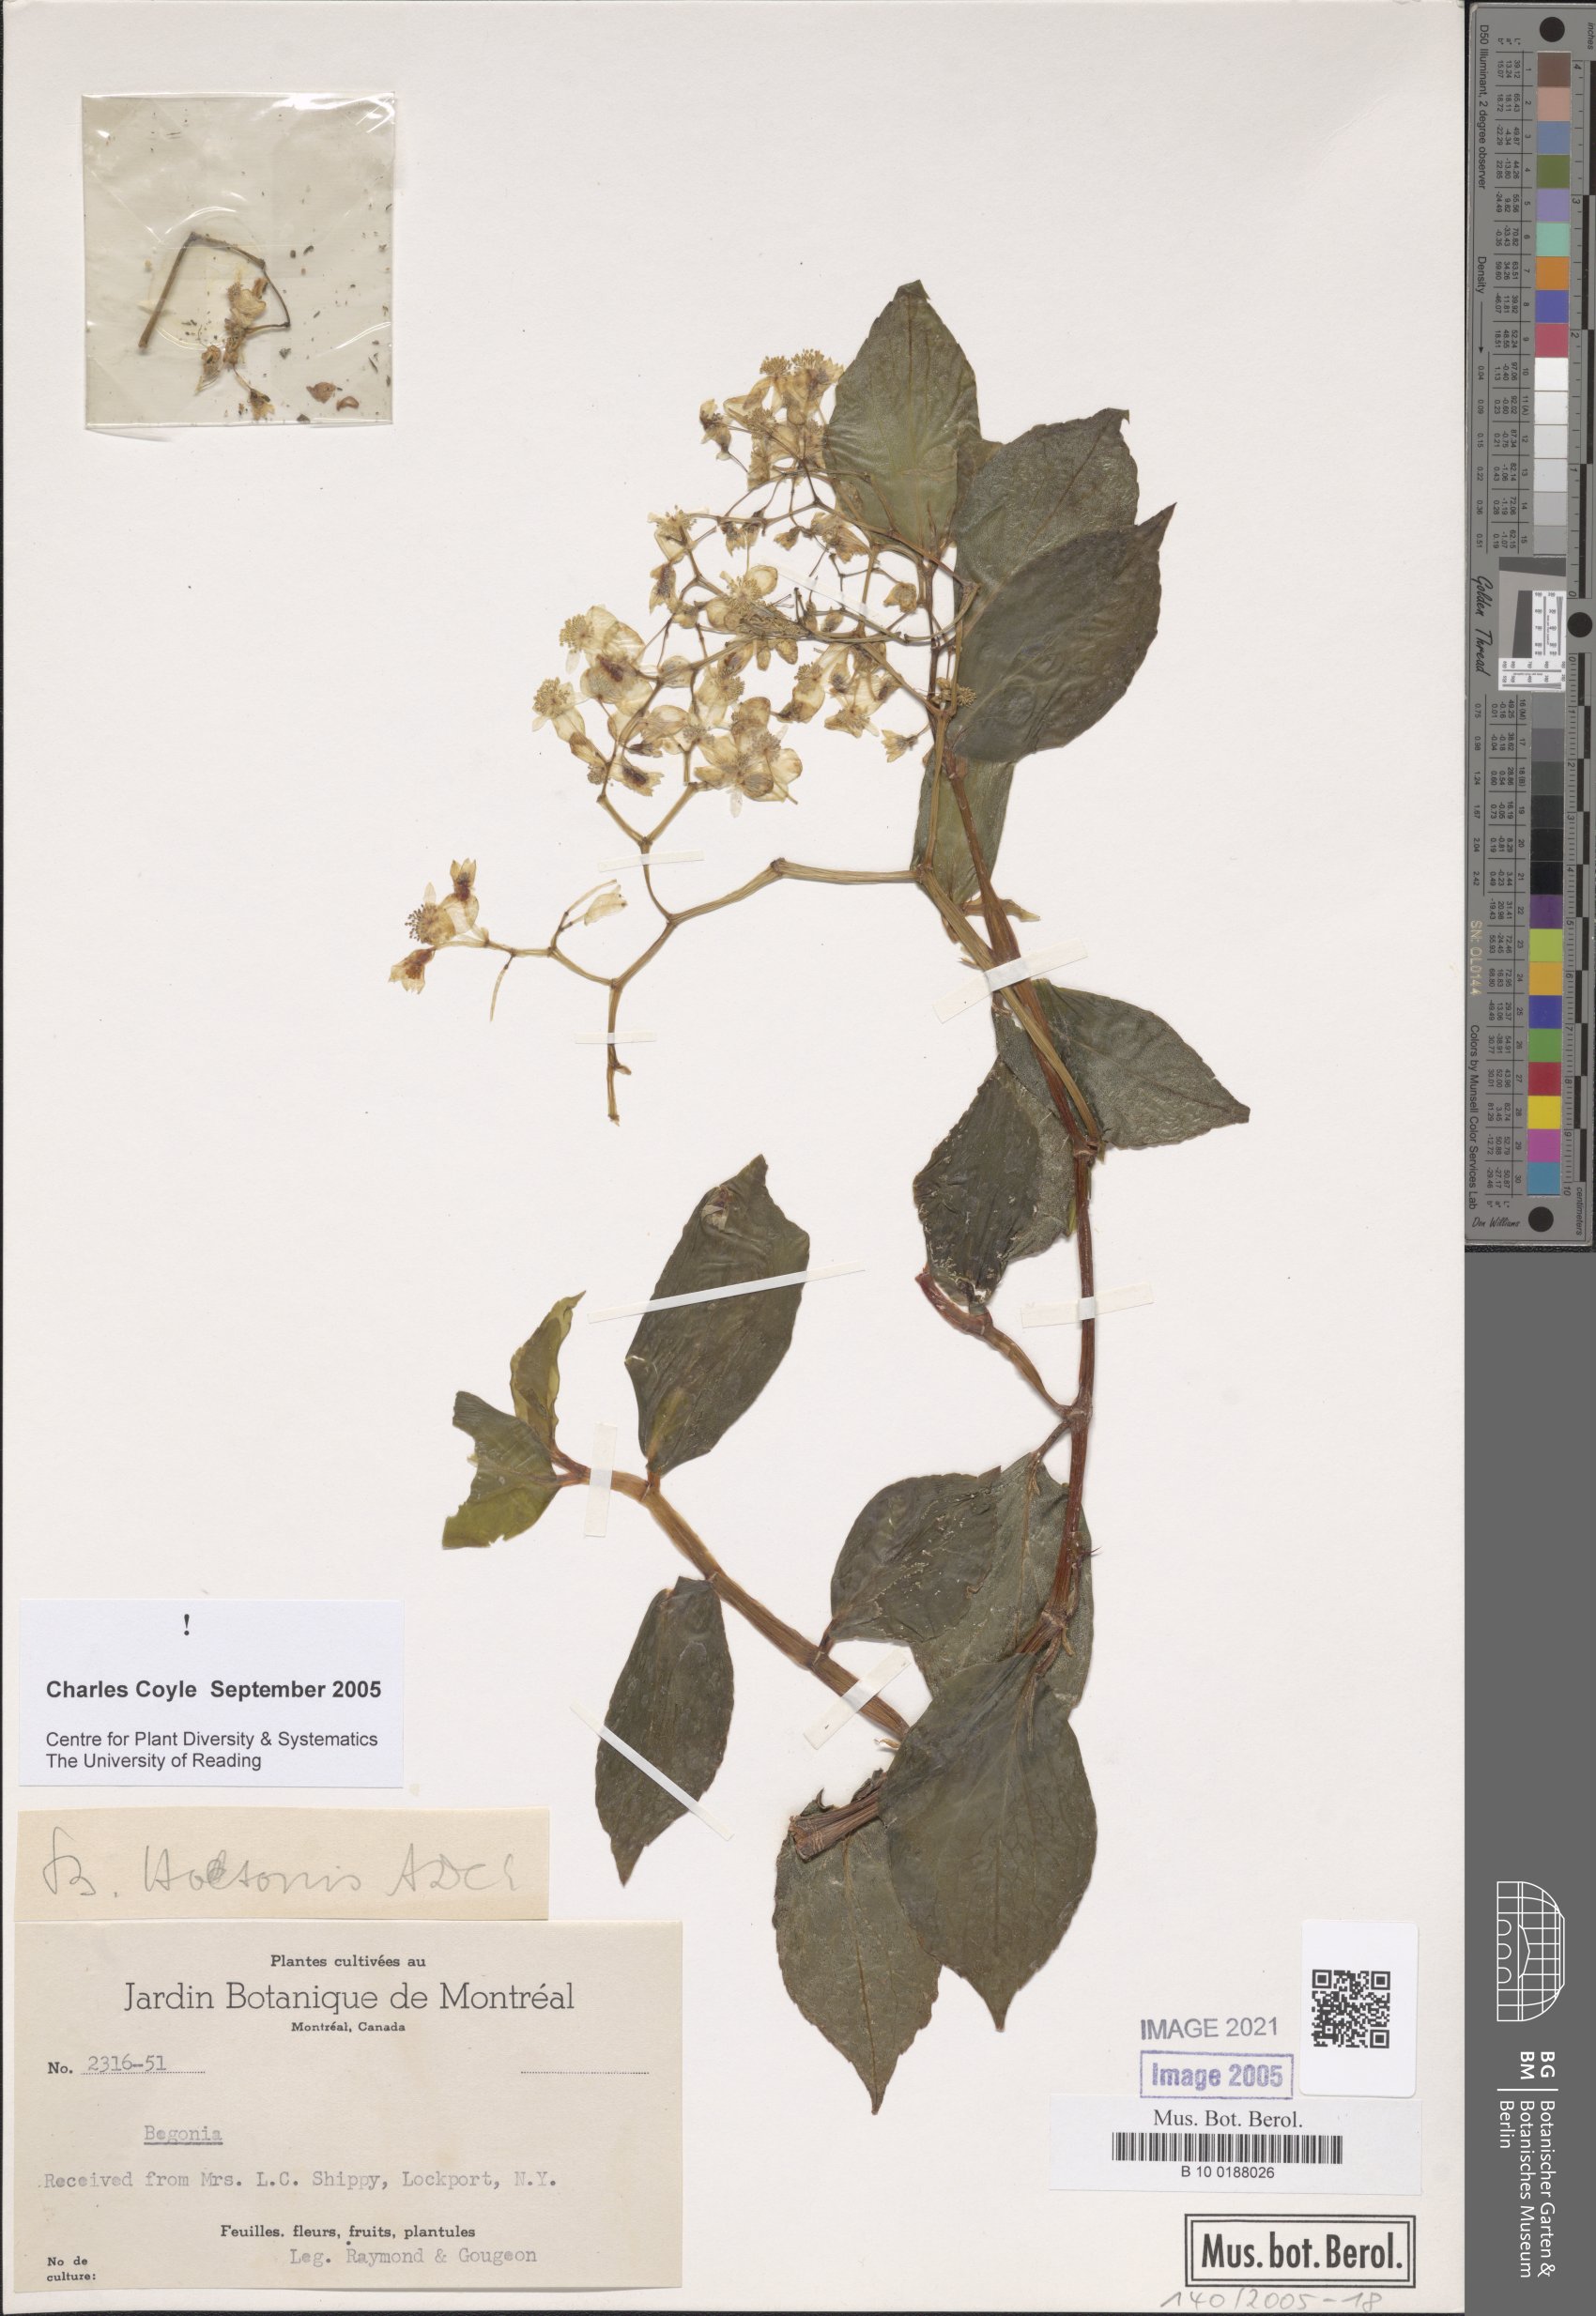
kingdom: Plantae
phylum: Tracheophyta
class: Magnoliopsida
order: Cucurbitales
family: Begoniaceae
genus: Begonia
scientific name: Begonia holtonis
